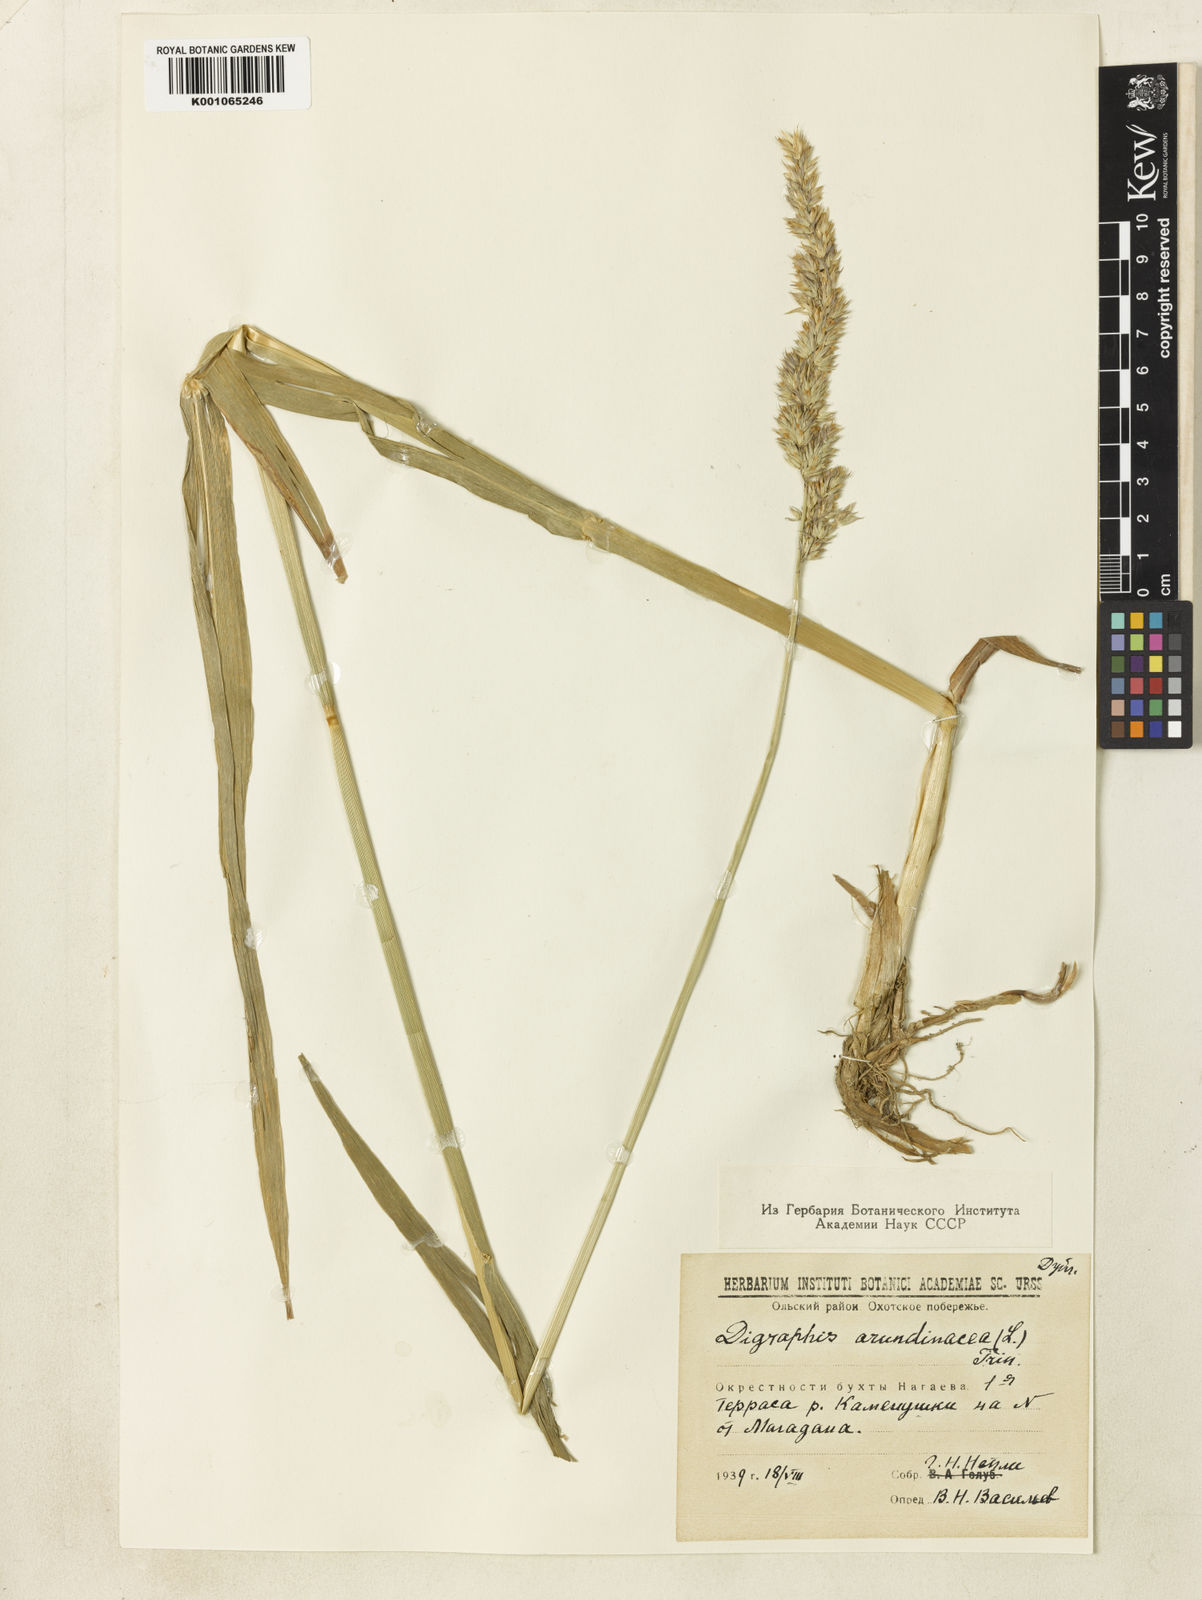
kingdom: Plantae
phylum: Tracheophyta
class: Liliopsida
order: Poales
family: Poaceae
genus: Phalaris
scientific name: Phalaris arundinacea
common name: Reed canary-grass
